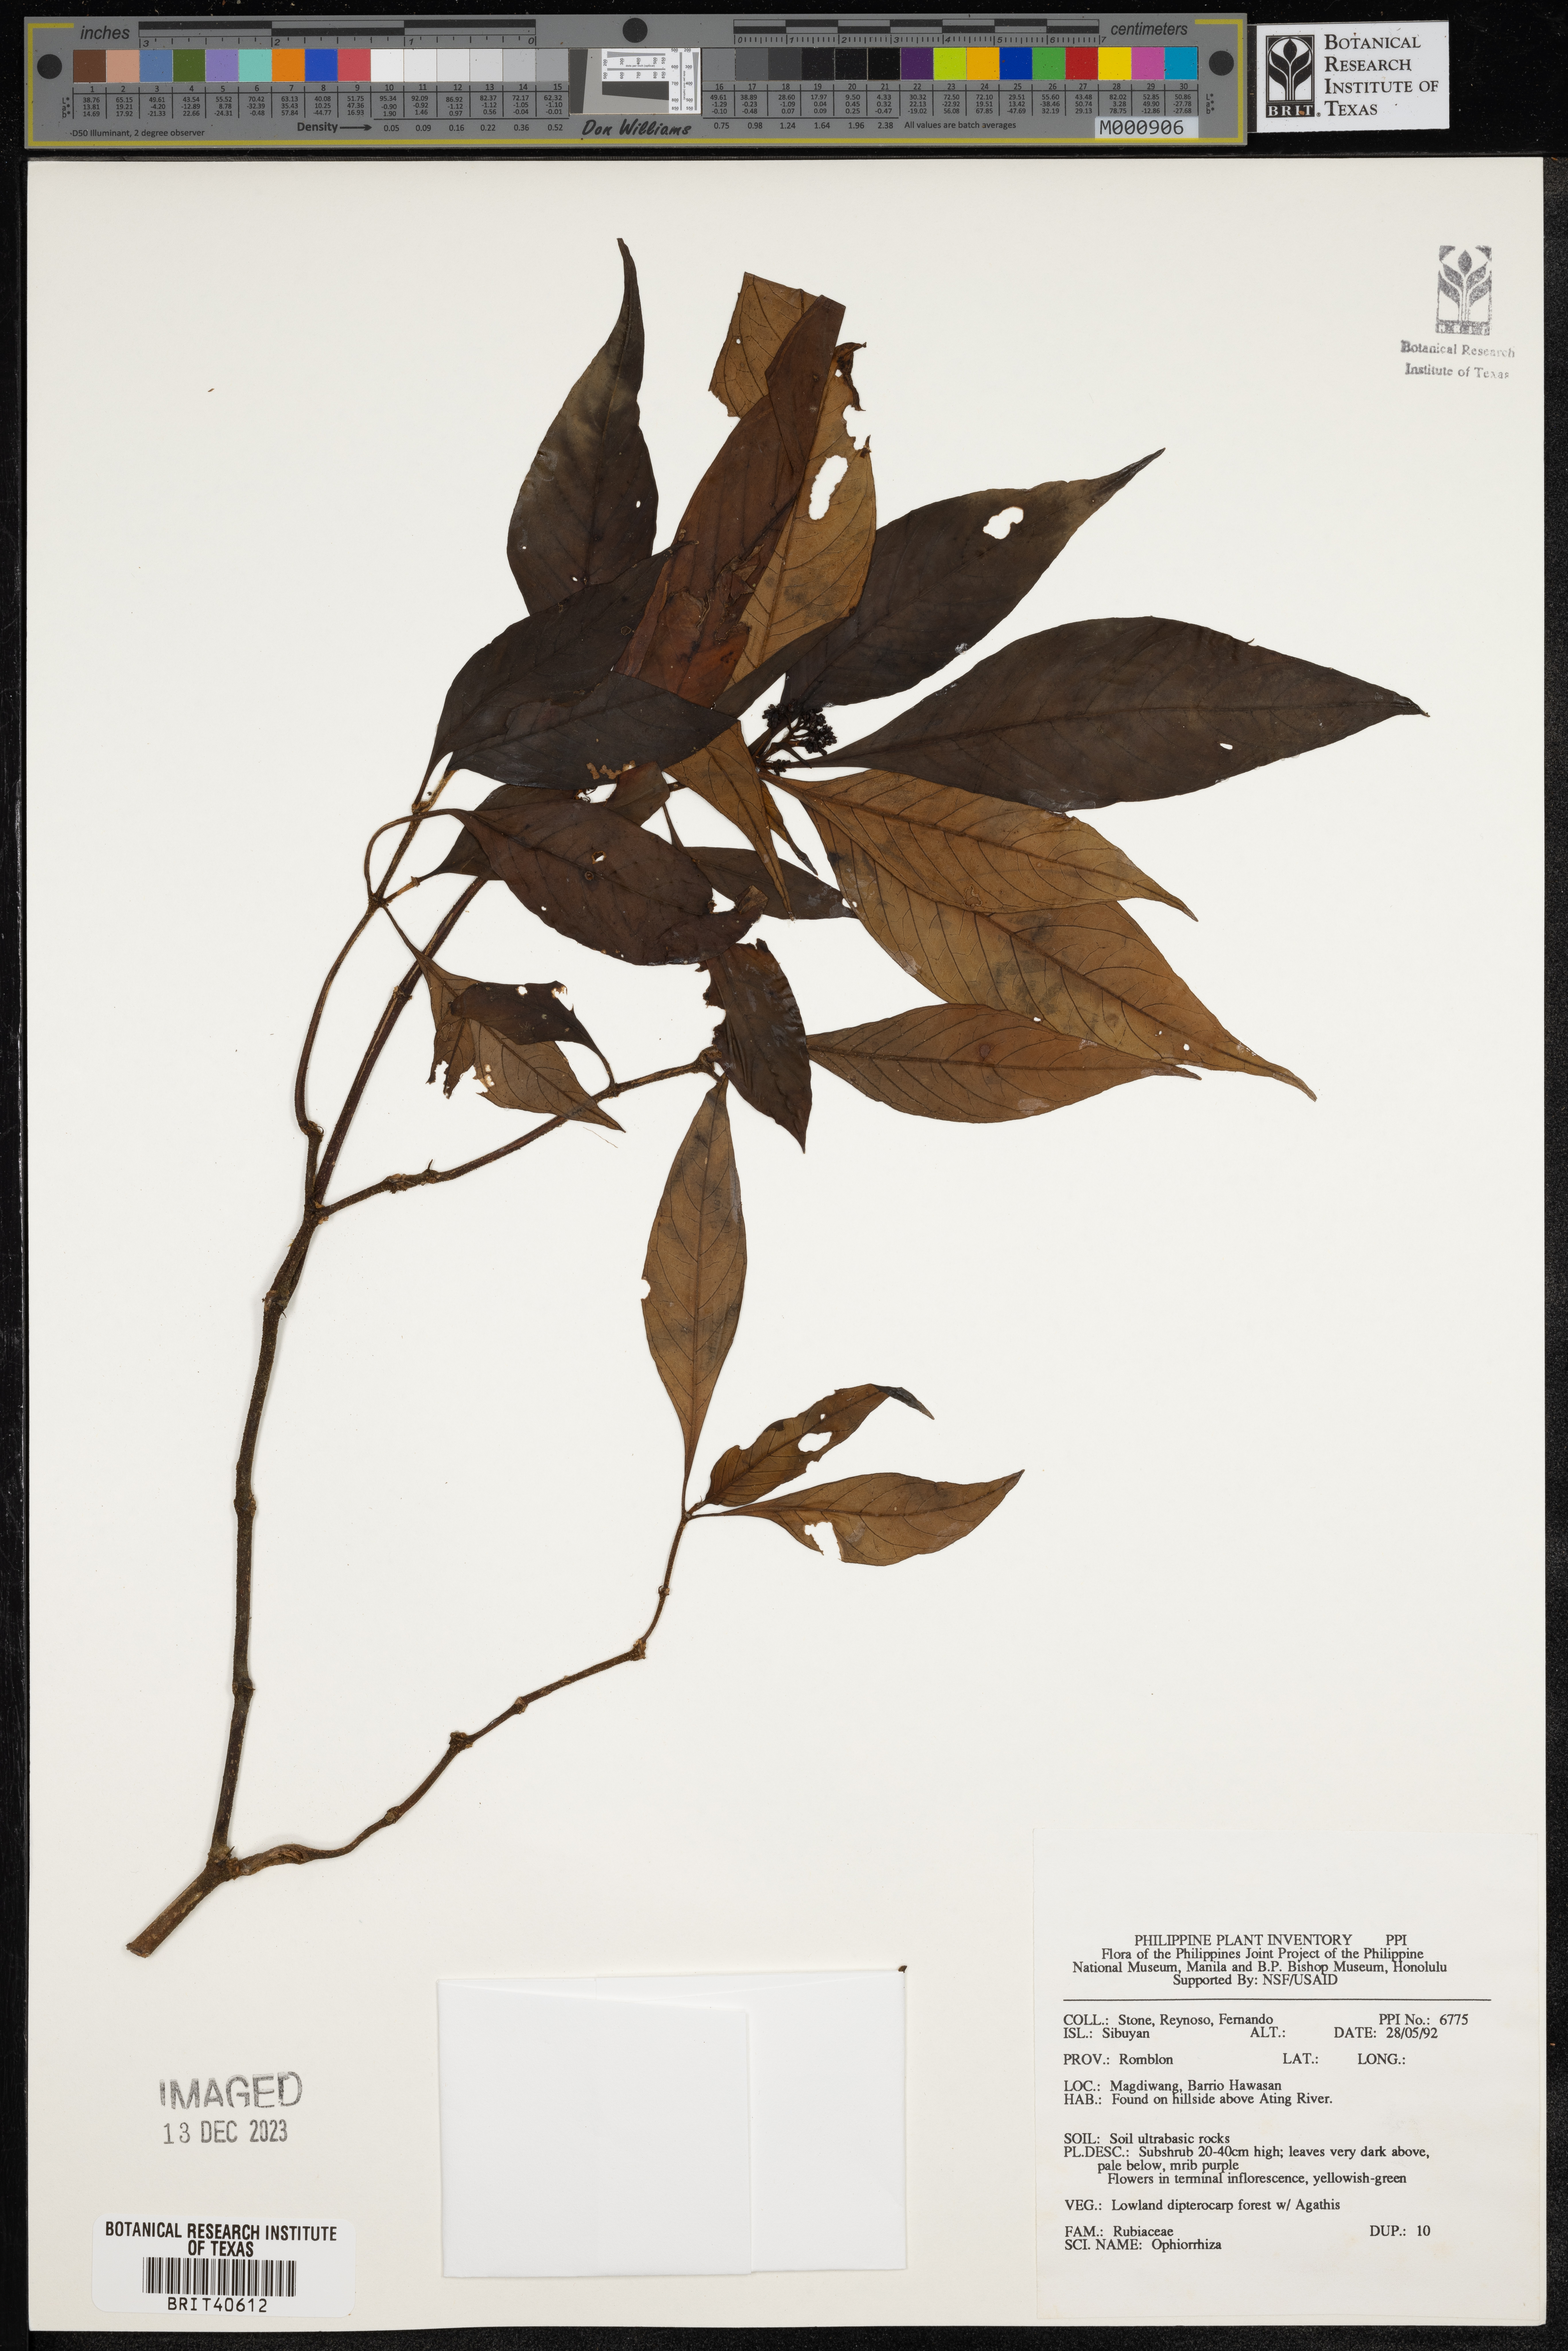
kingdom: Plantae
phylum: Tracheophyta
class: Magnoliopsida
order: Gentianales
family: Rubiaceae
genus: Ophiorrhiza
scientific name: Ophiorrhiza
